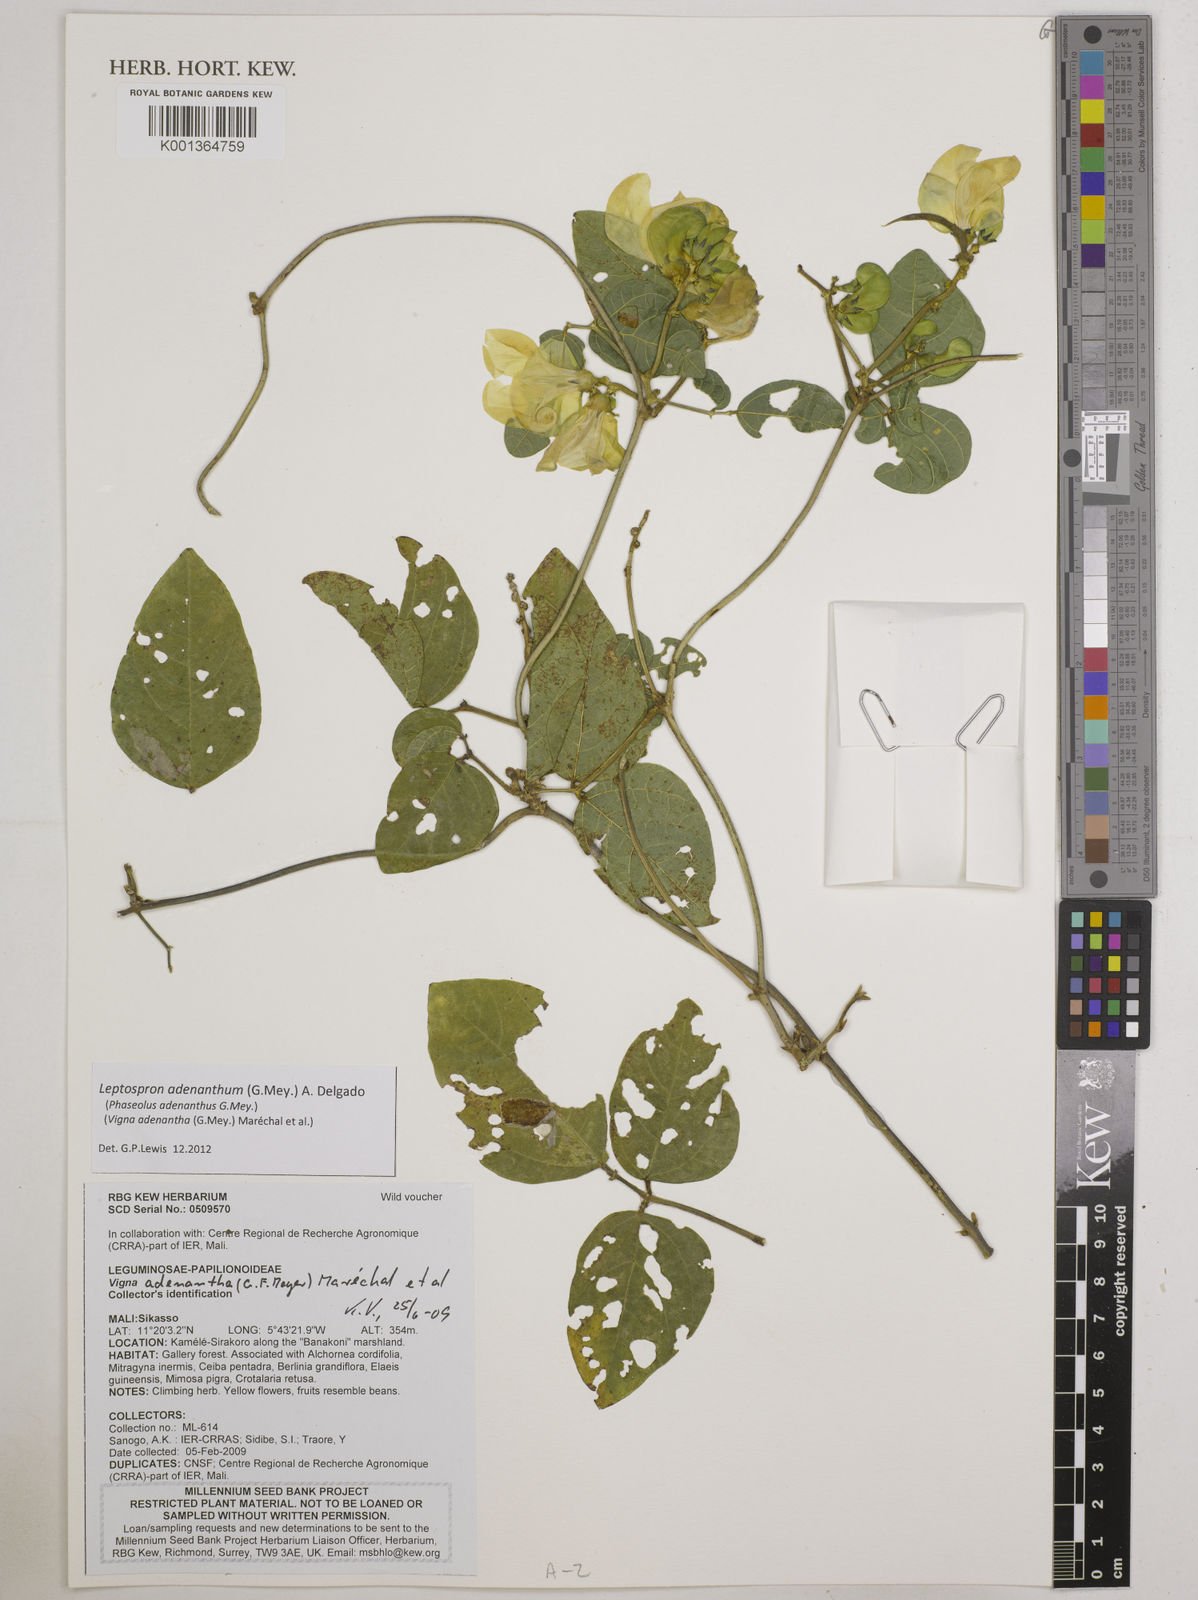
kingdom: Plantae
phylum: Tracheophyta
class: Magnoliopsida
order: Fabales
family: Fabaceae
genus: Leptospron
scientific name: Leptospron adenanthum
